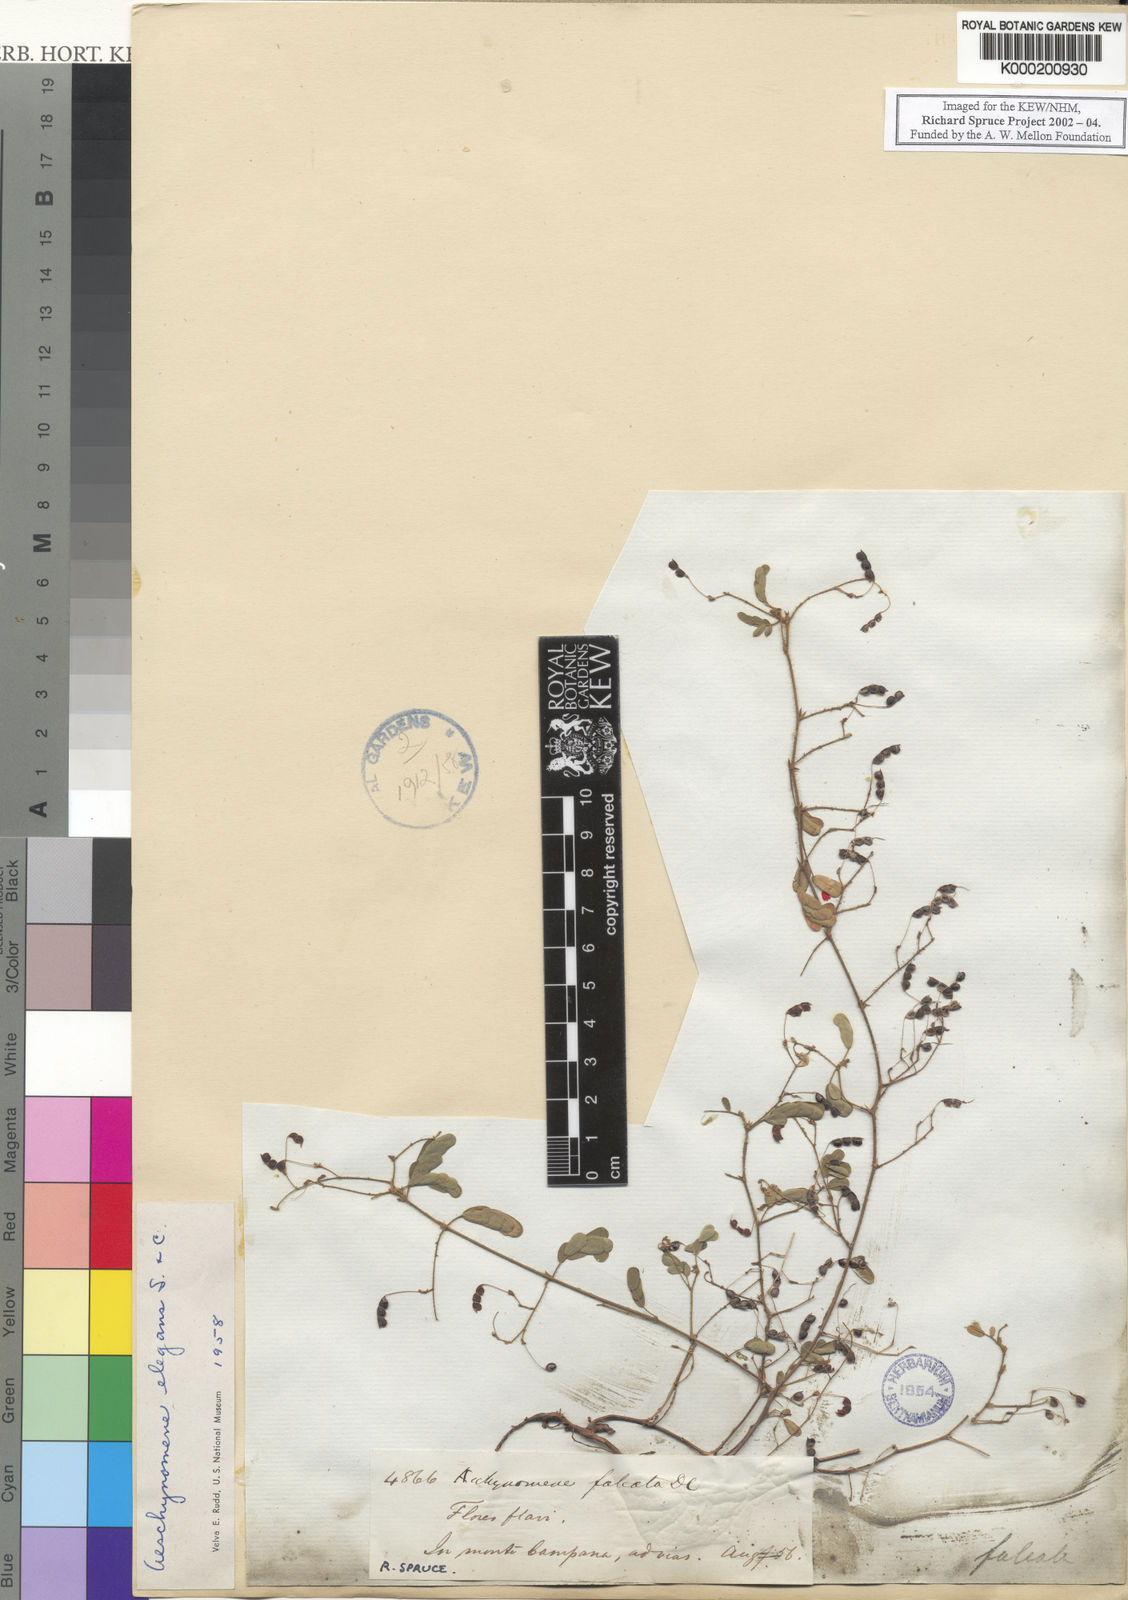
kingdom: Plantae
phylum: Tracheophyta
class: Magnoliopsida
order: Fabales
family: Fabaceae
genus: Ctenodon
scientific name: Ctenodon elegans
